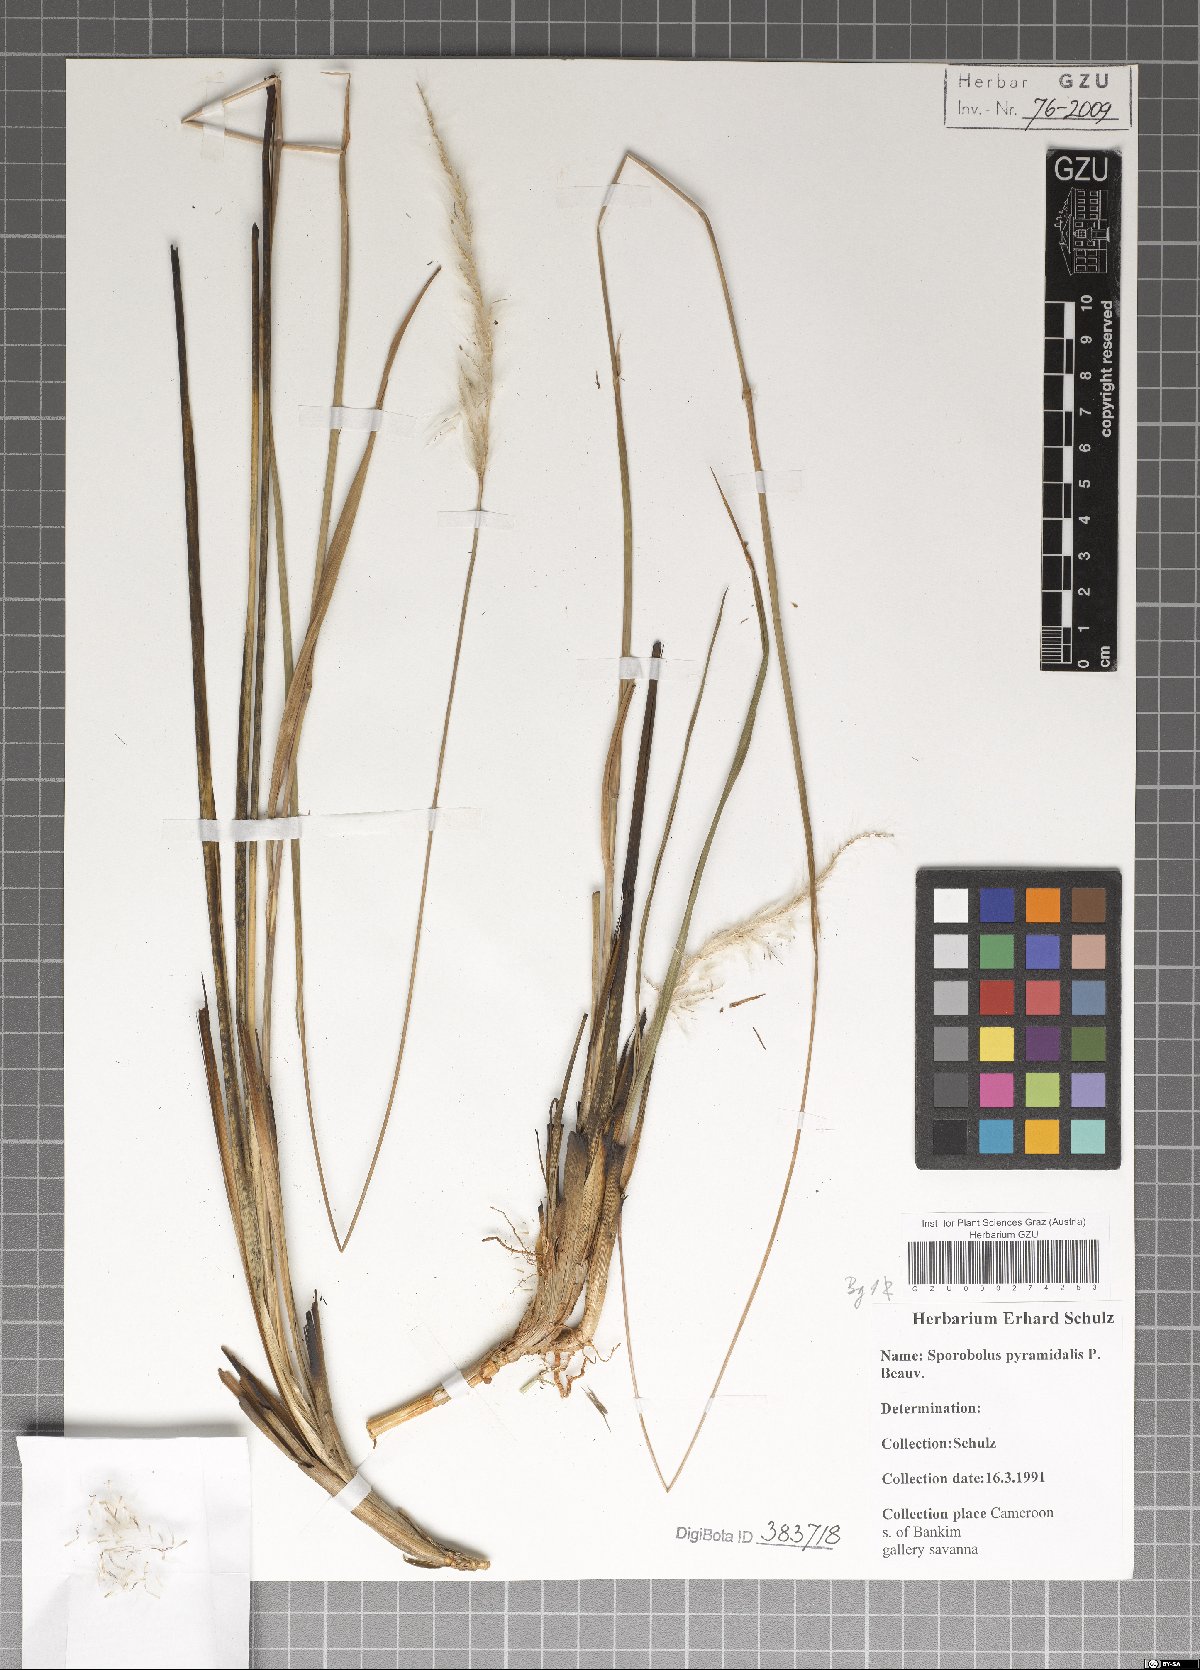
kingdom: Plantae
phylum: Tracheophyta
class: Liliopsida
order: Poales
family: Poaceae
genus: Sporobolus
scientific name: Sporobolus pyramidalis
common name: West indian dropseed
